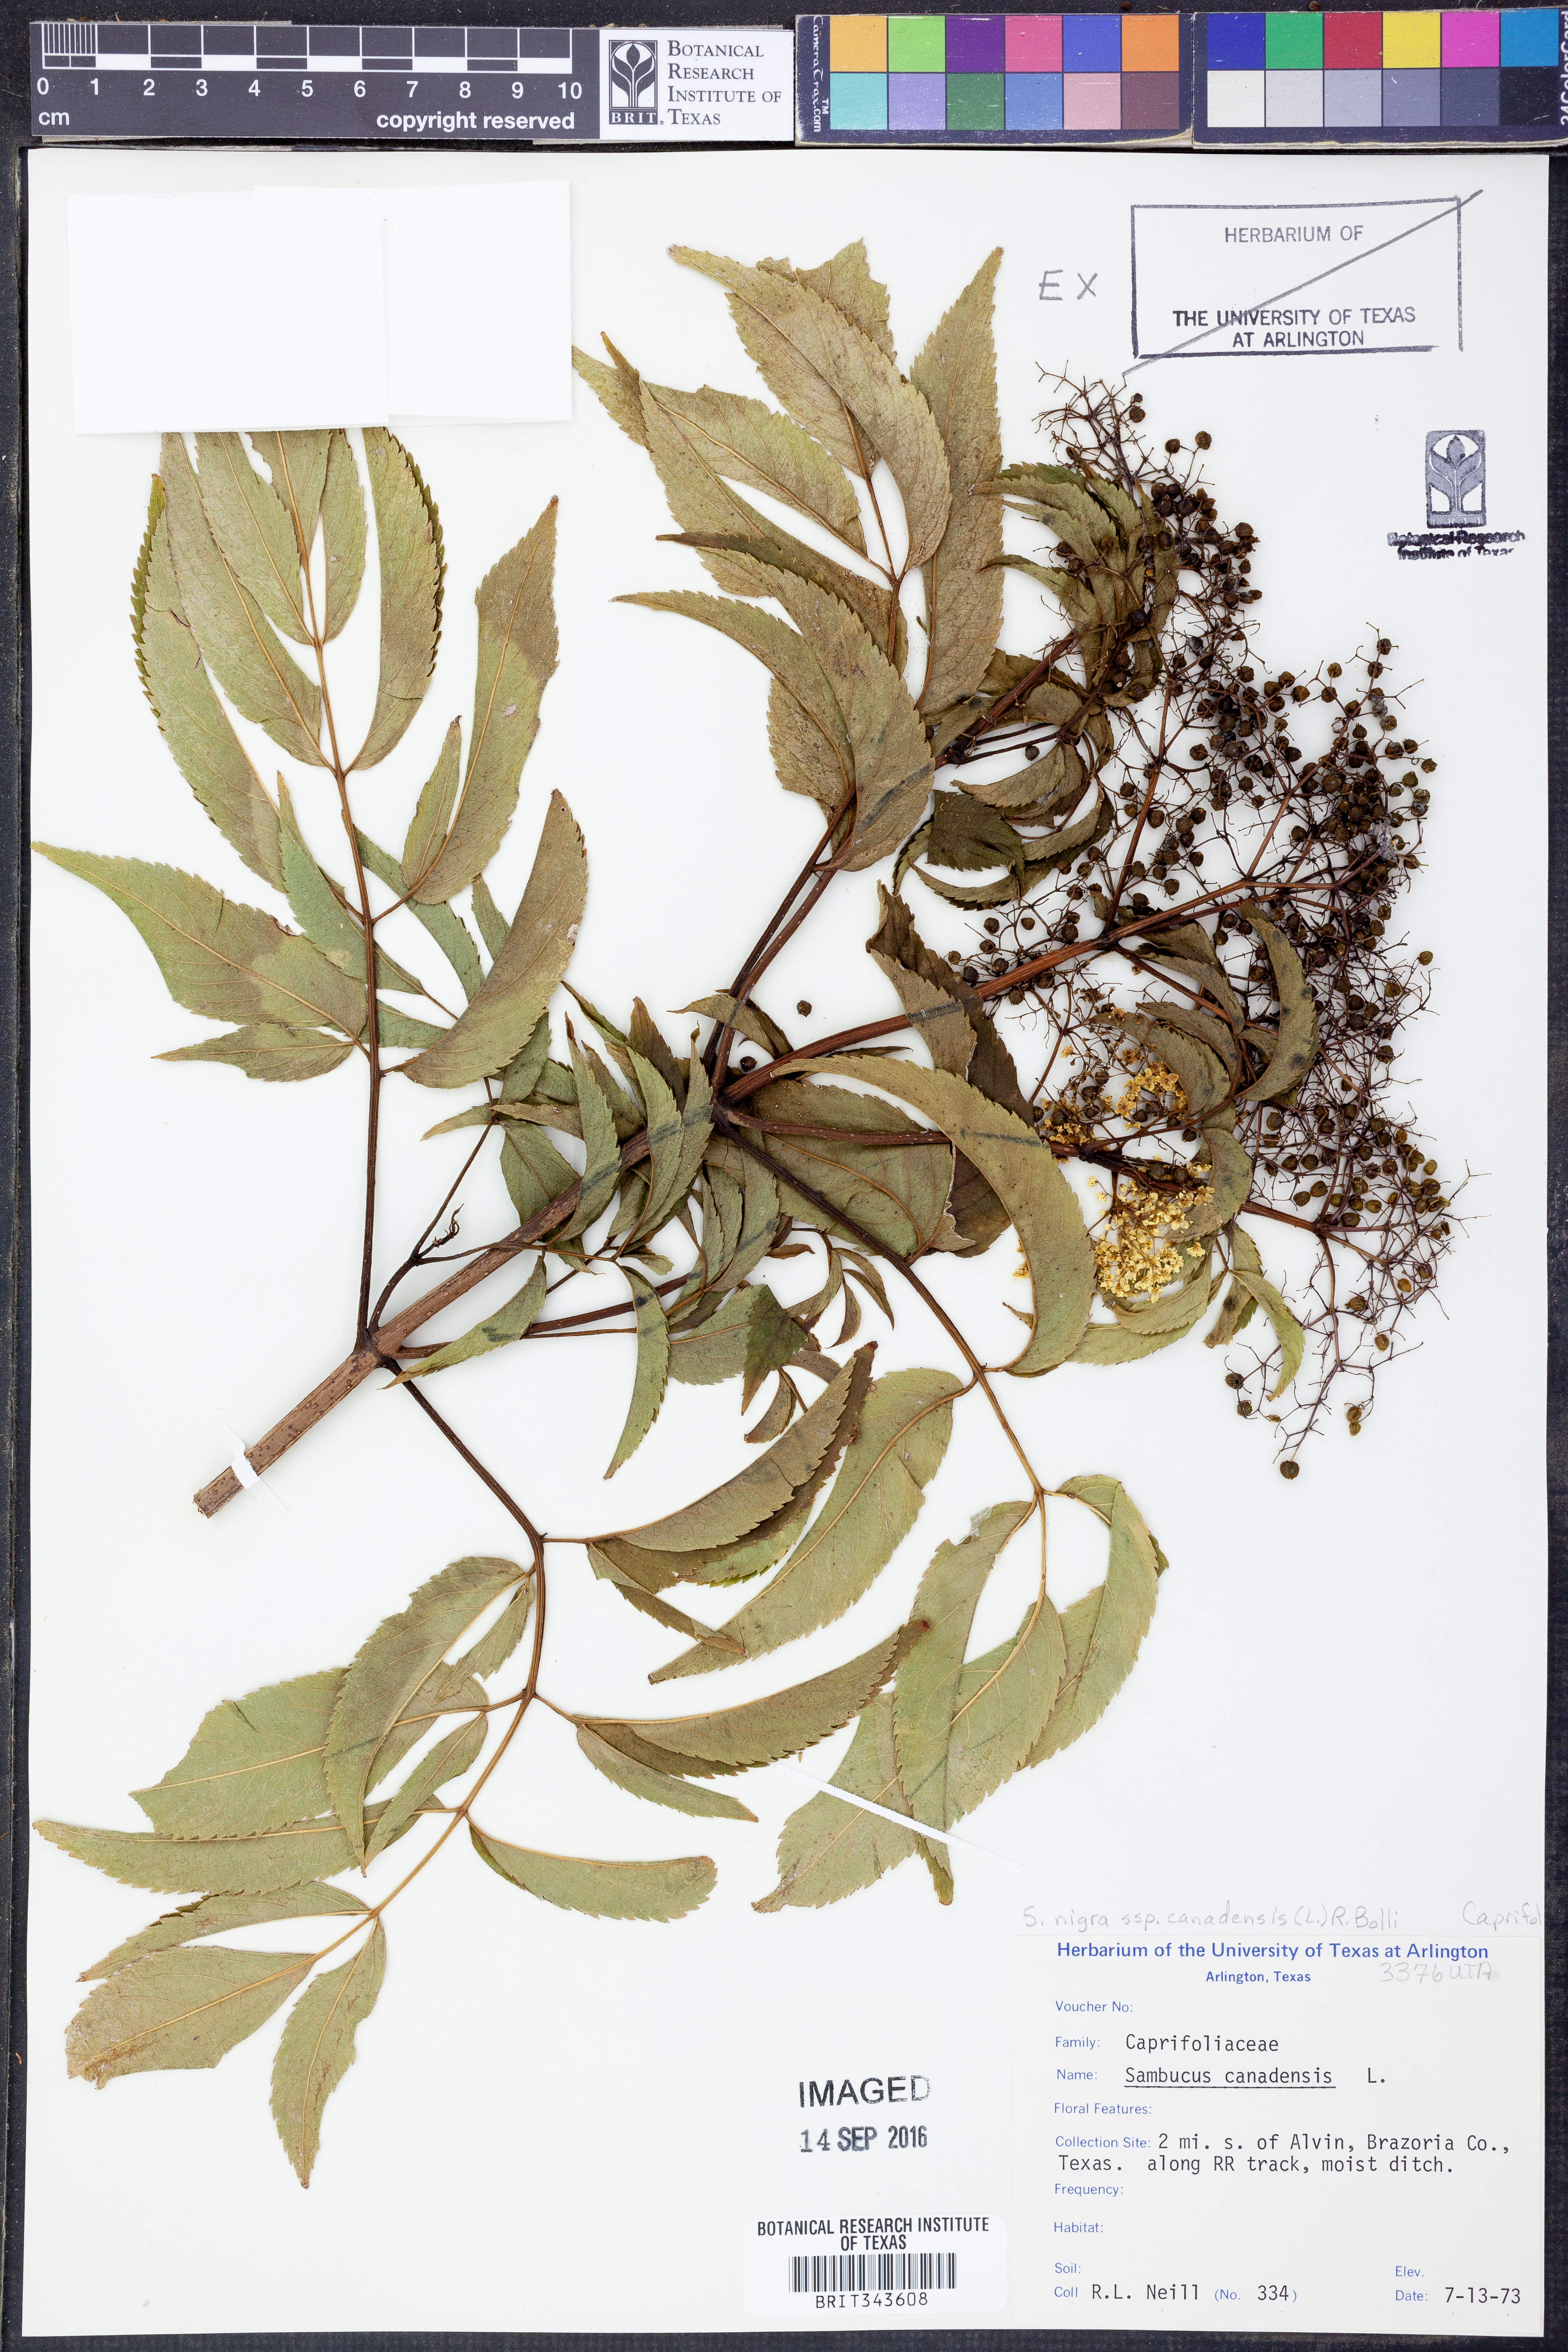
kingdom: Plantae
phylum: Tracheophyta
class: Magnoliopsida
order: Dipsacales
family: Viburnaceae
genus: Sambucus
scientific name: Sambucus canadensis
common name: American elder
